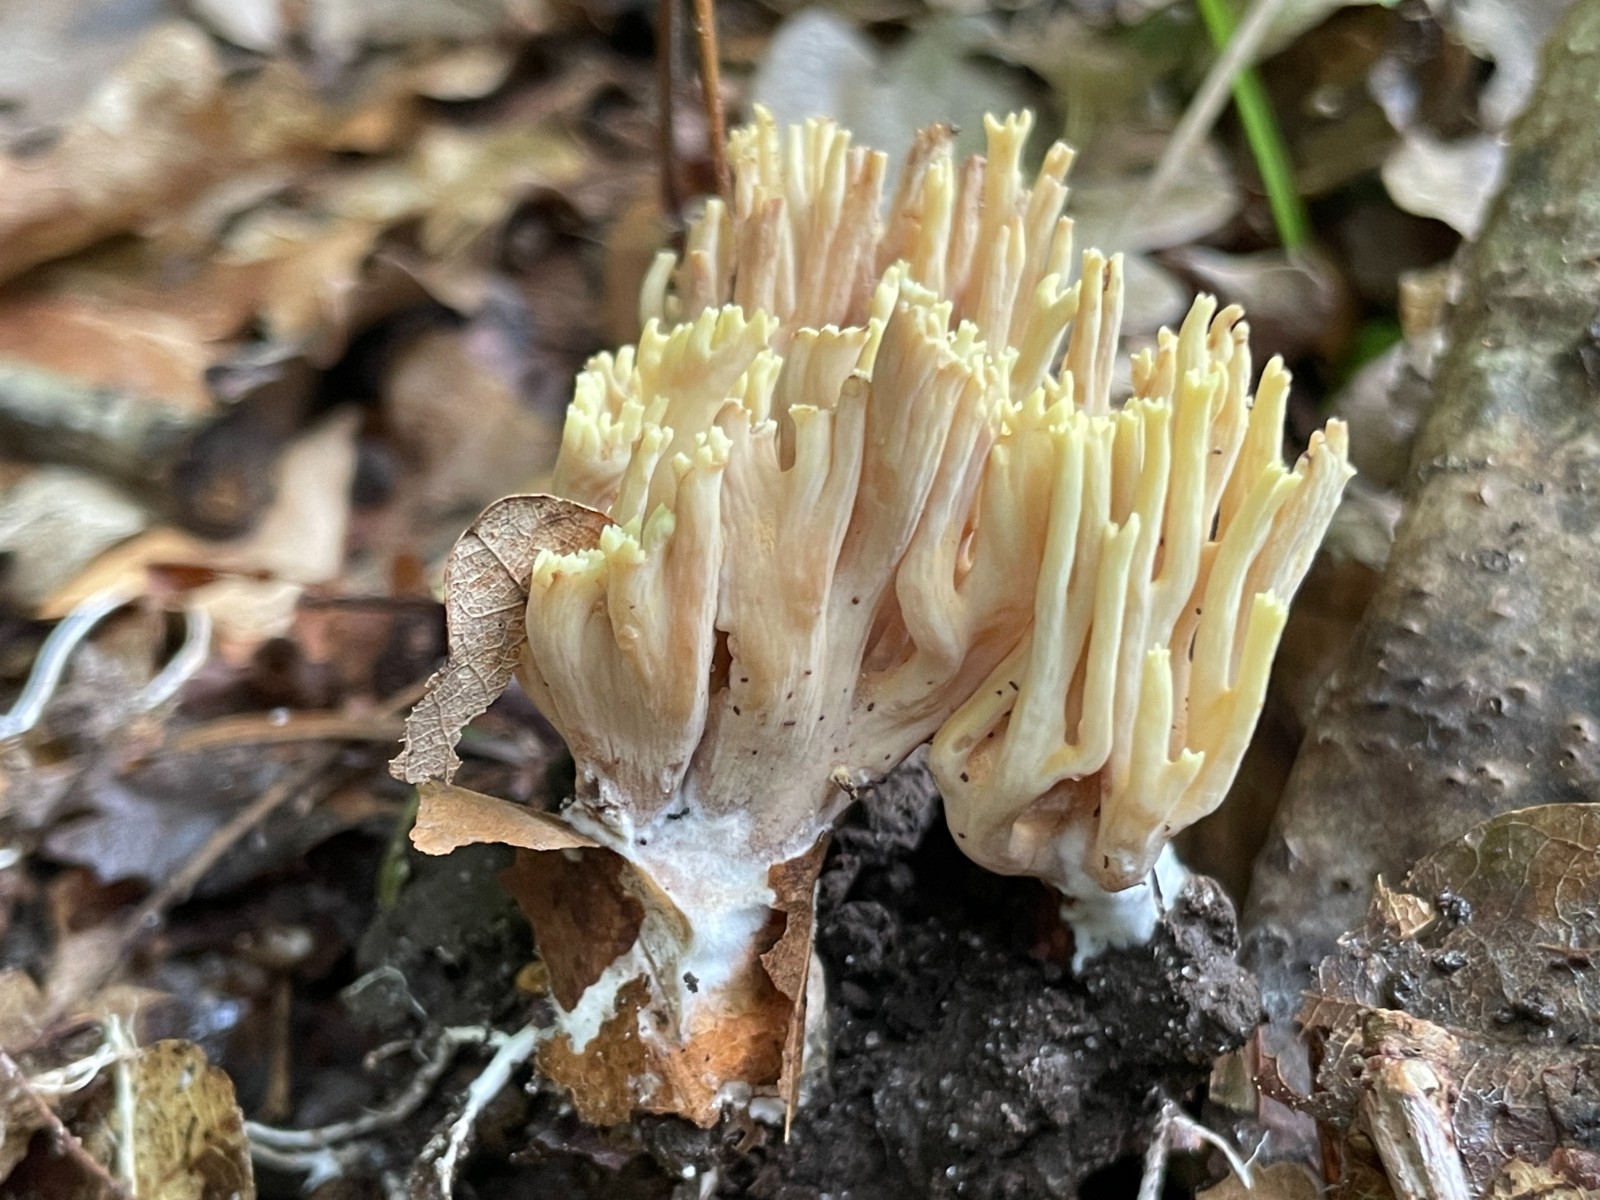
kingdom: Fungi
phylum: Basidiomycota
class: Agaricomycetes
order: Gomphales
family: Gomphaceae
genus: Ramaria
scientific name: Ramaria stricta
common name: rank koralsvamp
